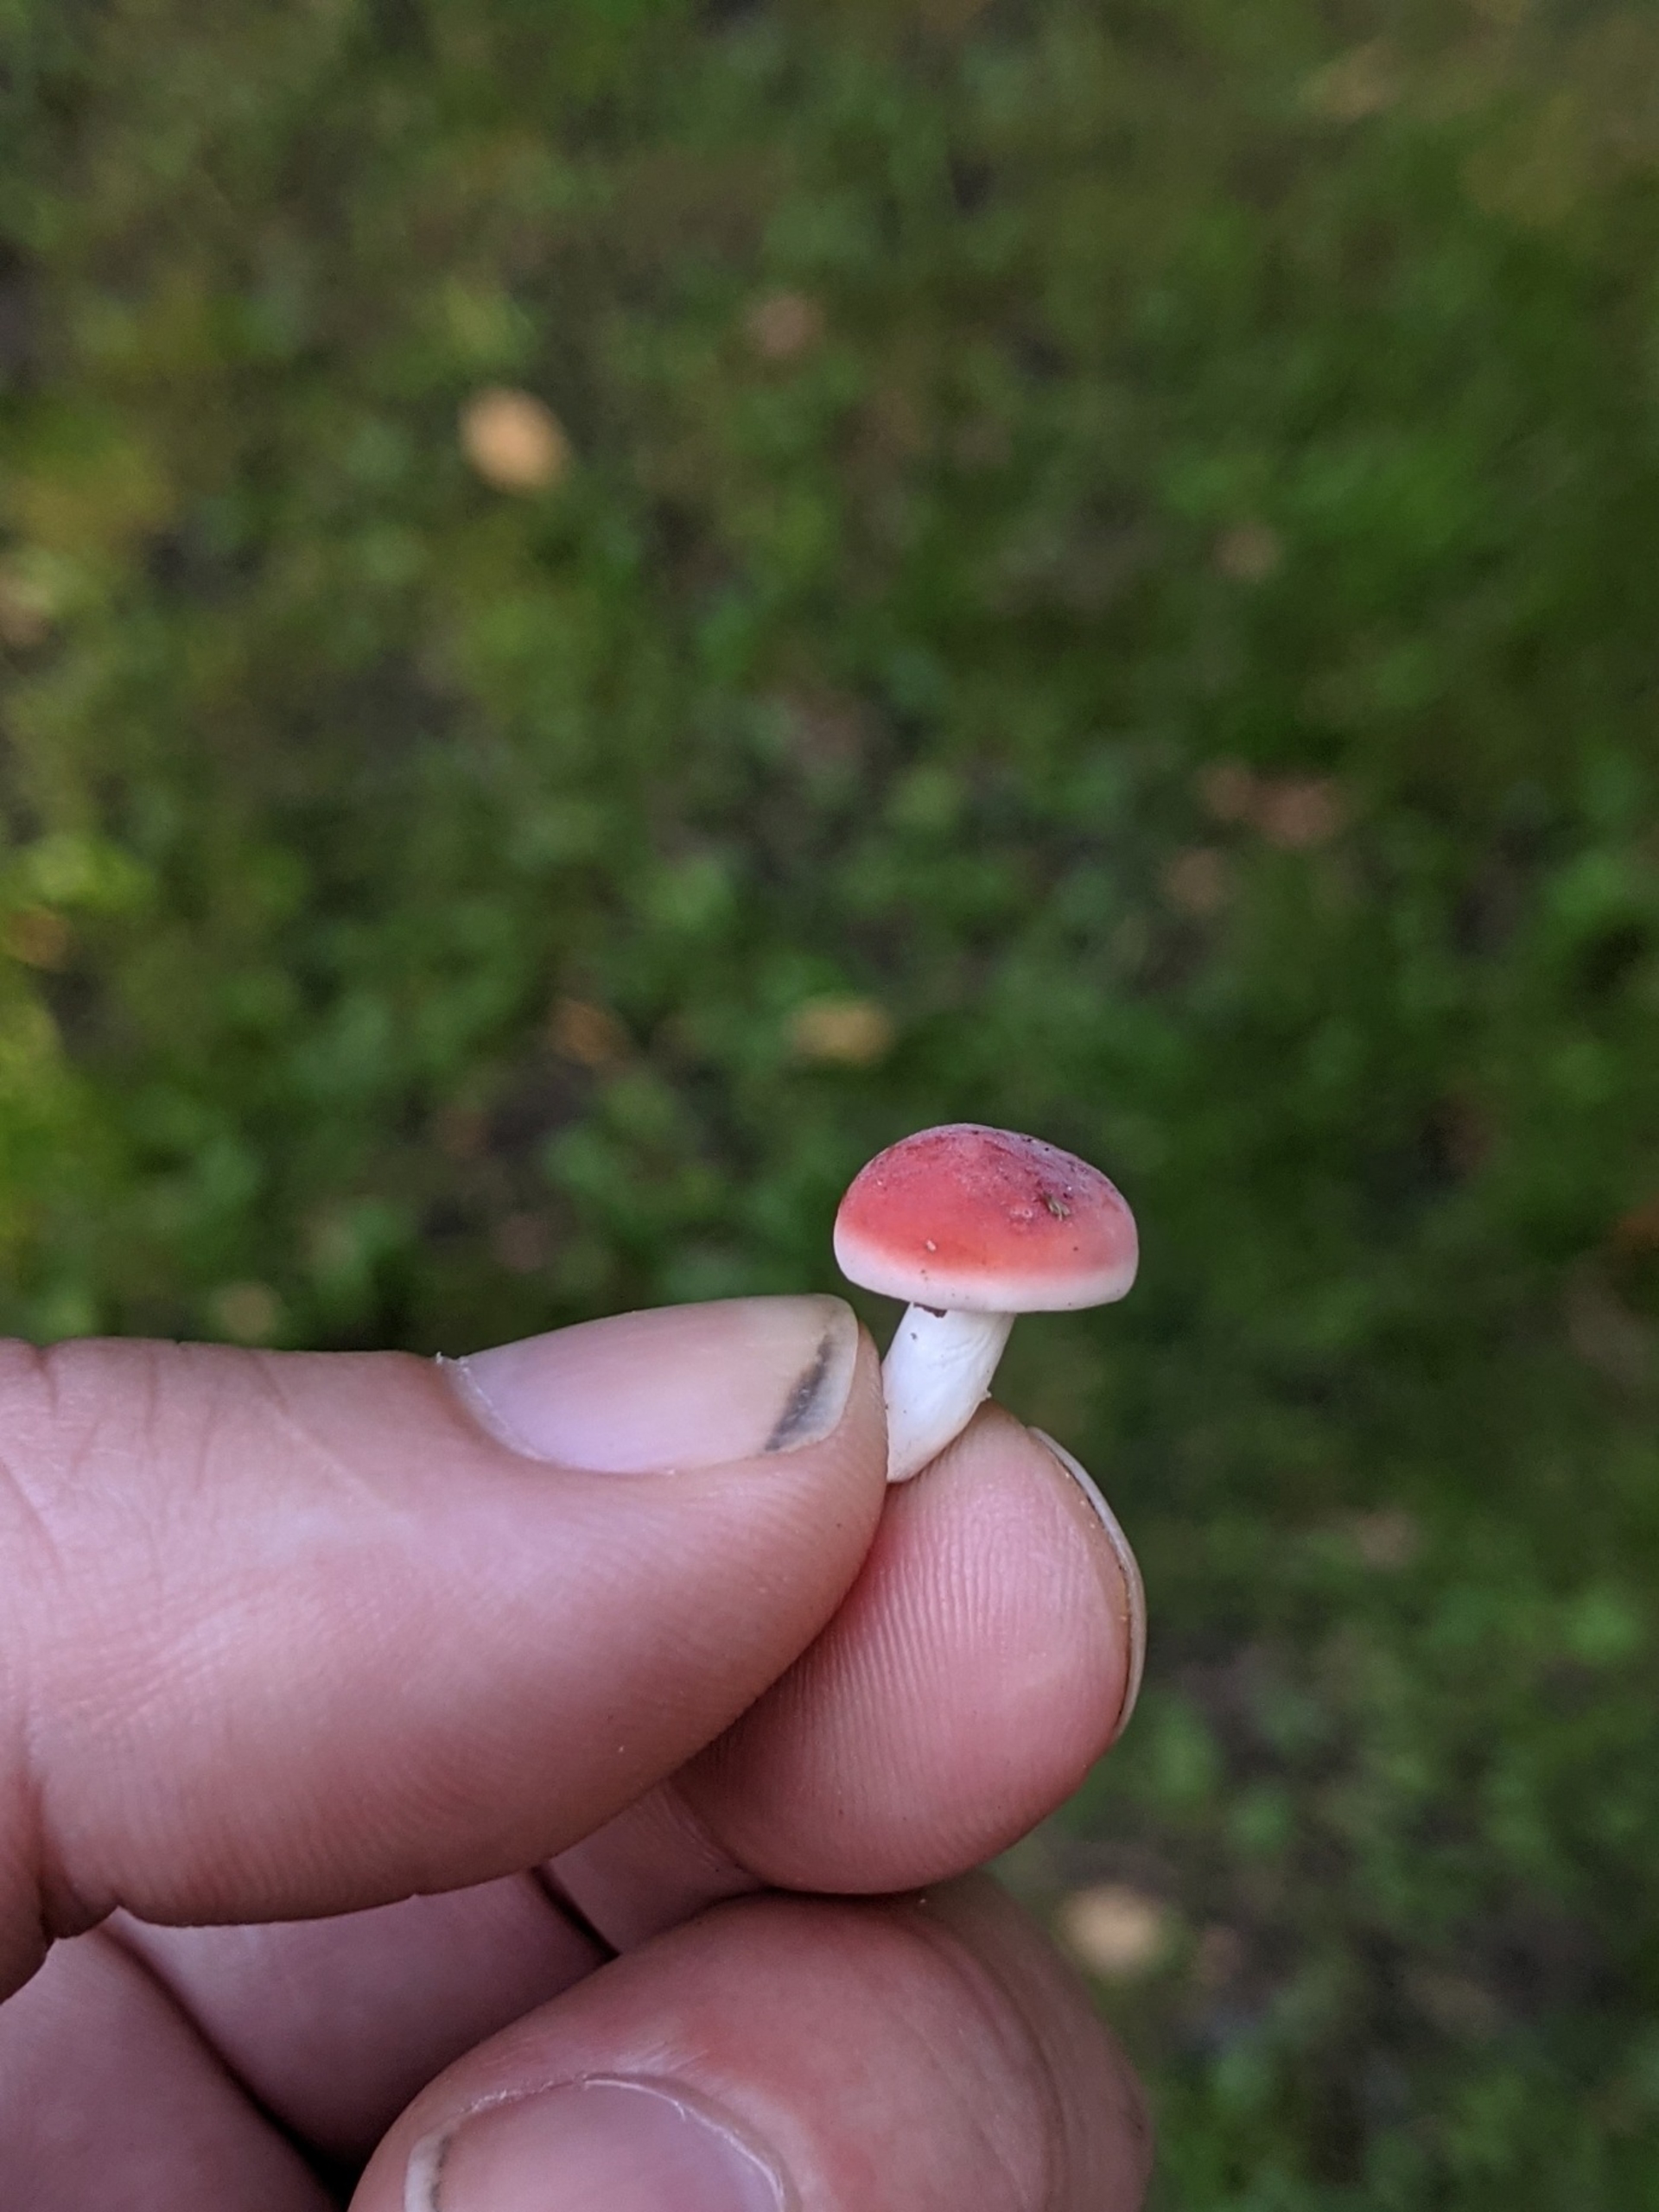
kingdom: Fungi
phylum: Basidiomycota
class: Agaricomycetes
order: Russulales
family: Russulaceae
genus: Russula
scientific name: Russula
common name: Skørhat
